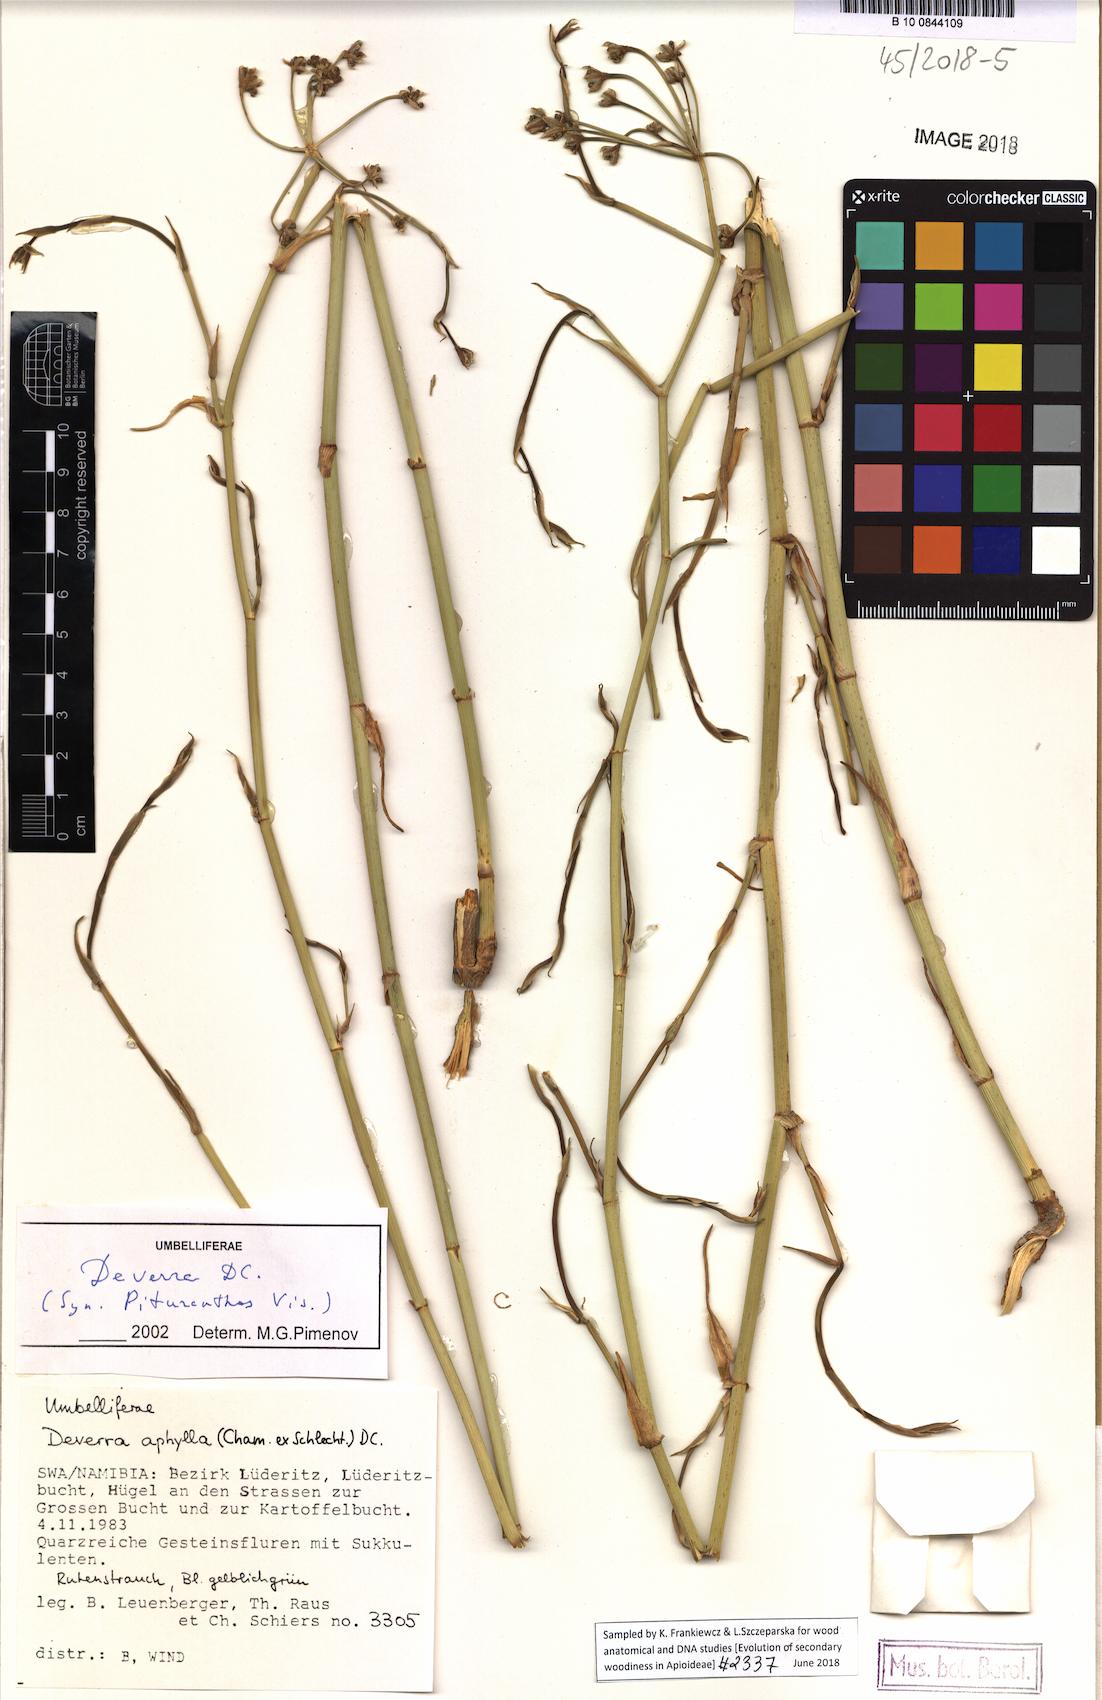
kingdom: Plantae
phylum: Tracheophyta
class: Magnoliopsida
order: Apiales
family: Apiaceae
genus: Deverra
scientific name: Deverra aphylla
